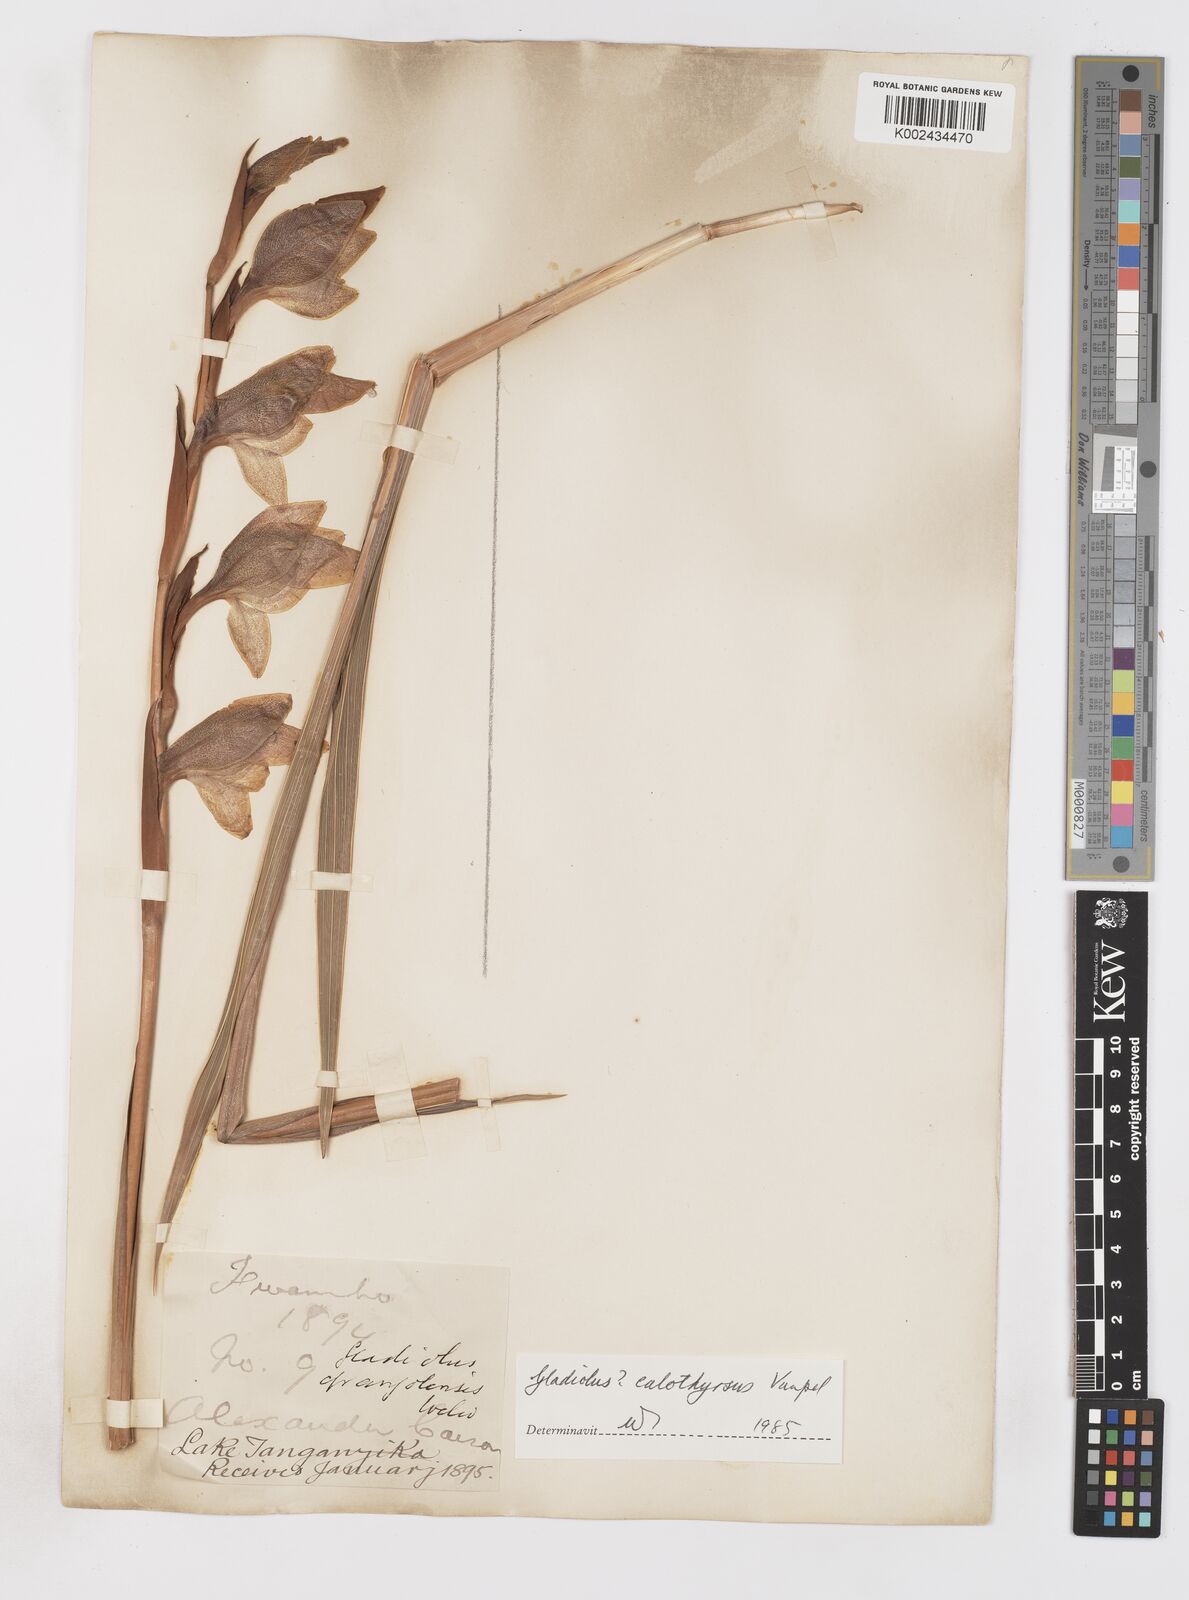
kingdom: Plantae
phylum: Tracheophyta
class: Liliopsida
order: Asparagales
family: Iridaceae
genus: Gladiolus
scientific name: Gladiolus dalenii
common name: Cornflag
